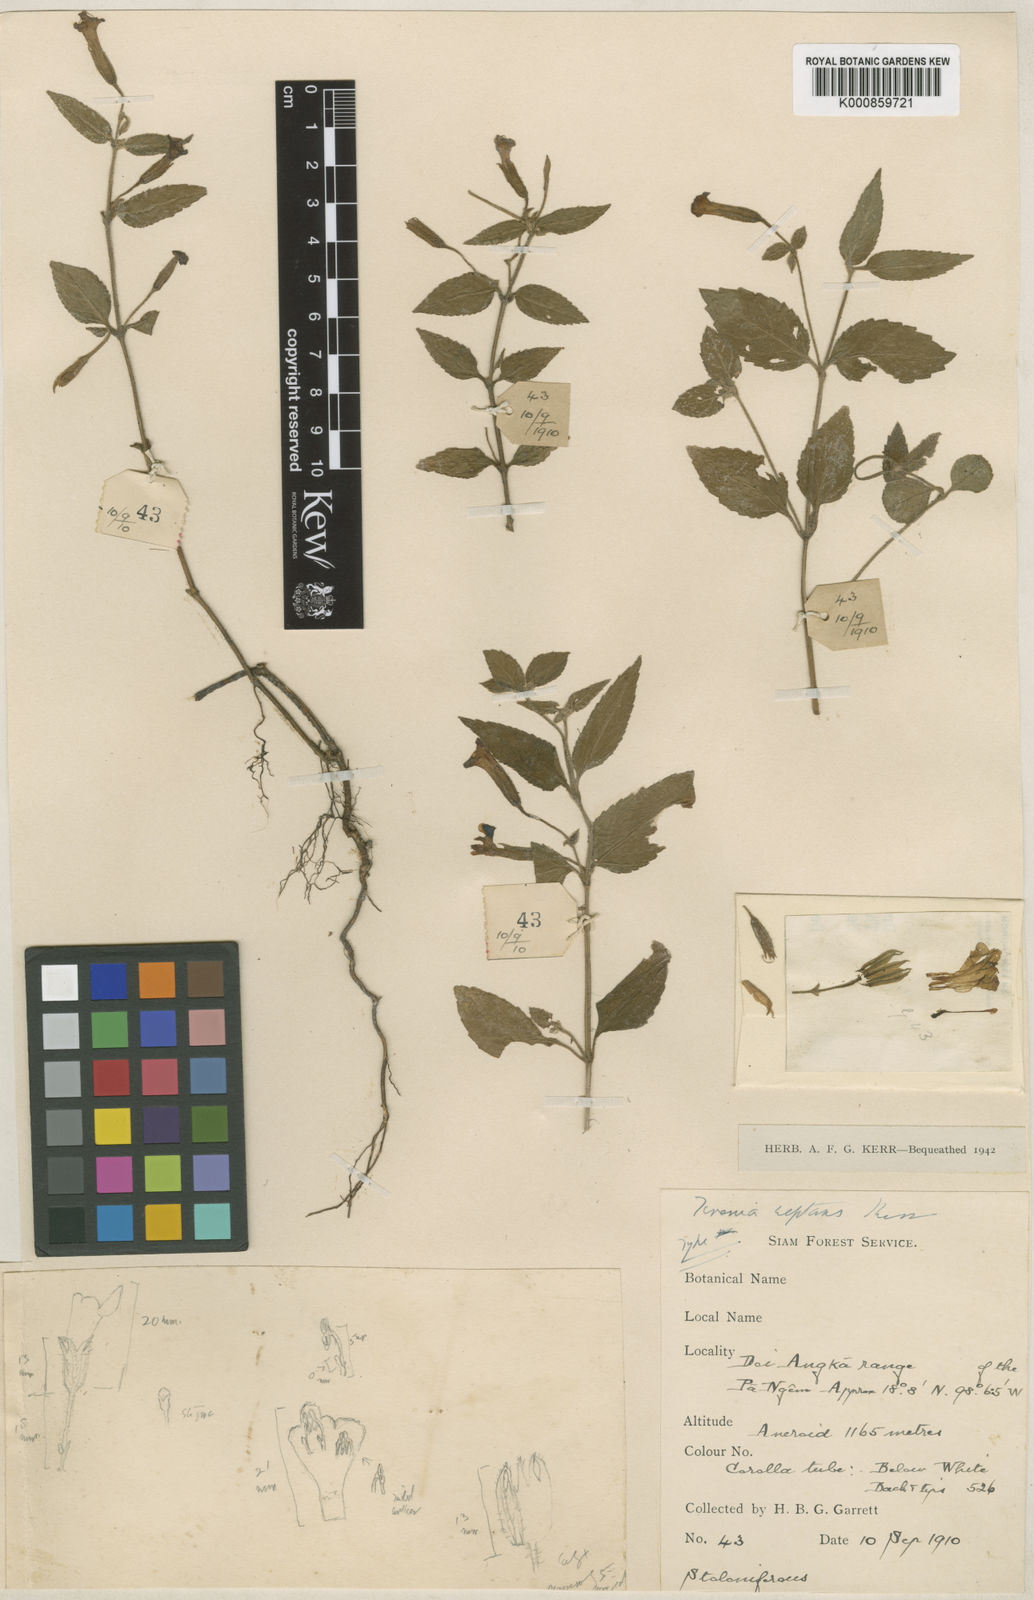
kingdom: Plantae
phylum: Tracheophyta
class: Magnoliopsida
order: Lamiales
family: Linderniaceae
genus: Torenia
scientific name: Torenia pierreana
